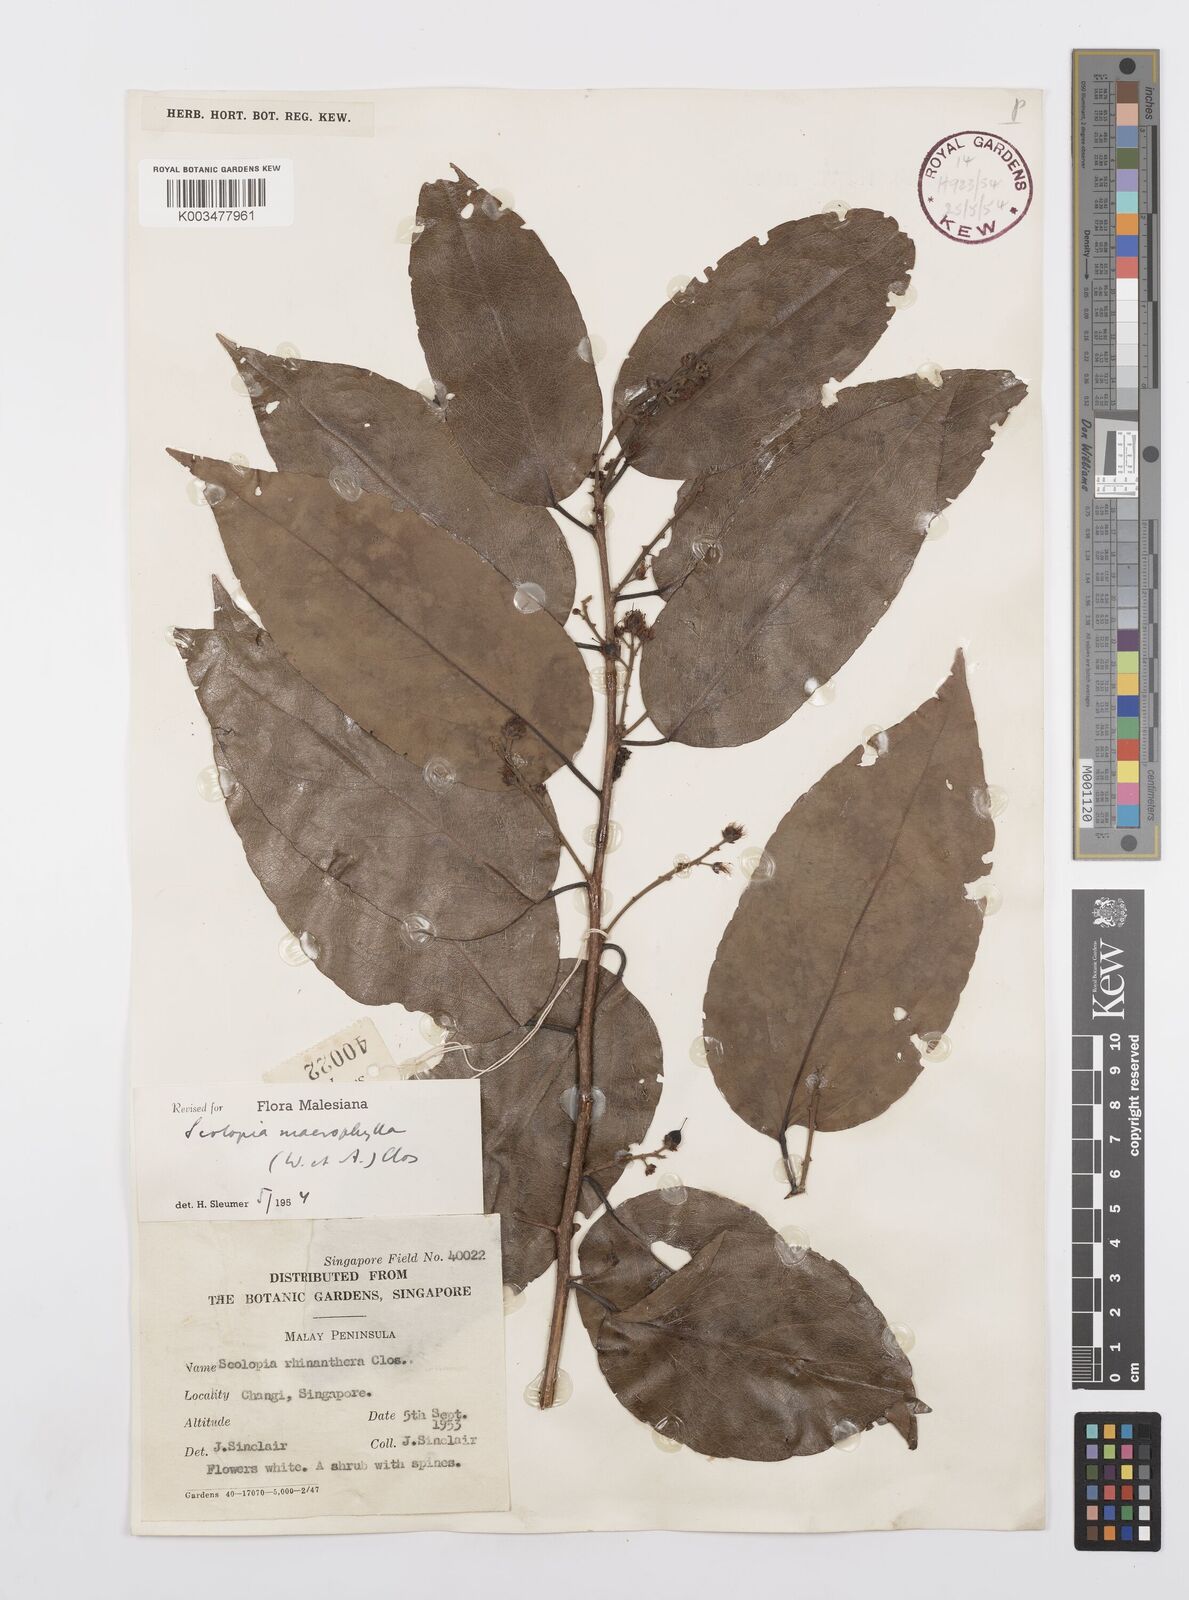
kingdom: Plantae
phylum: Tracheophyta
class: Magnoliopsida
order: Malpighiales
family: Salicaceae
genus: Scolopia
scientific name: Scolopia macrophylla
